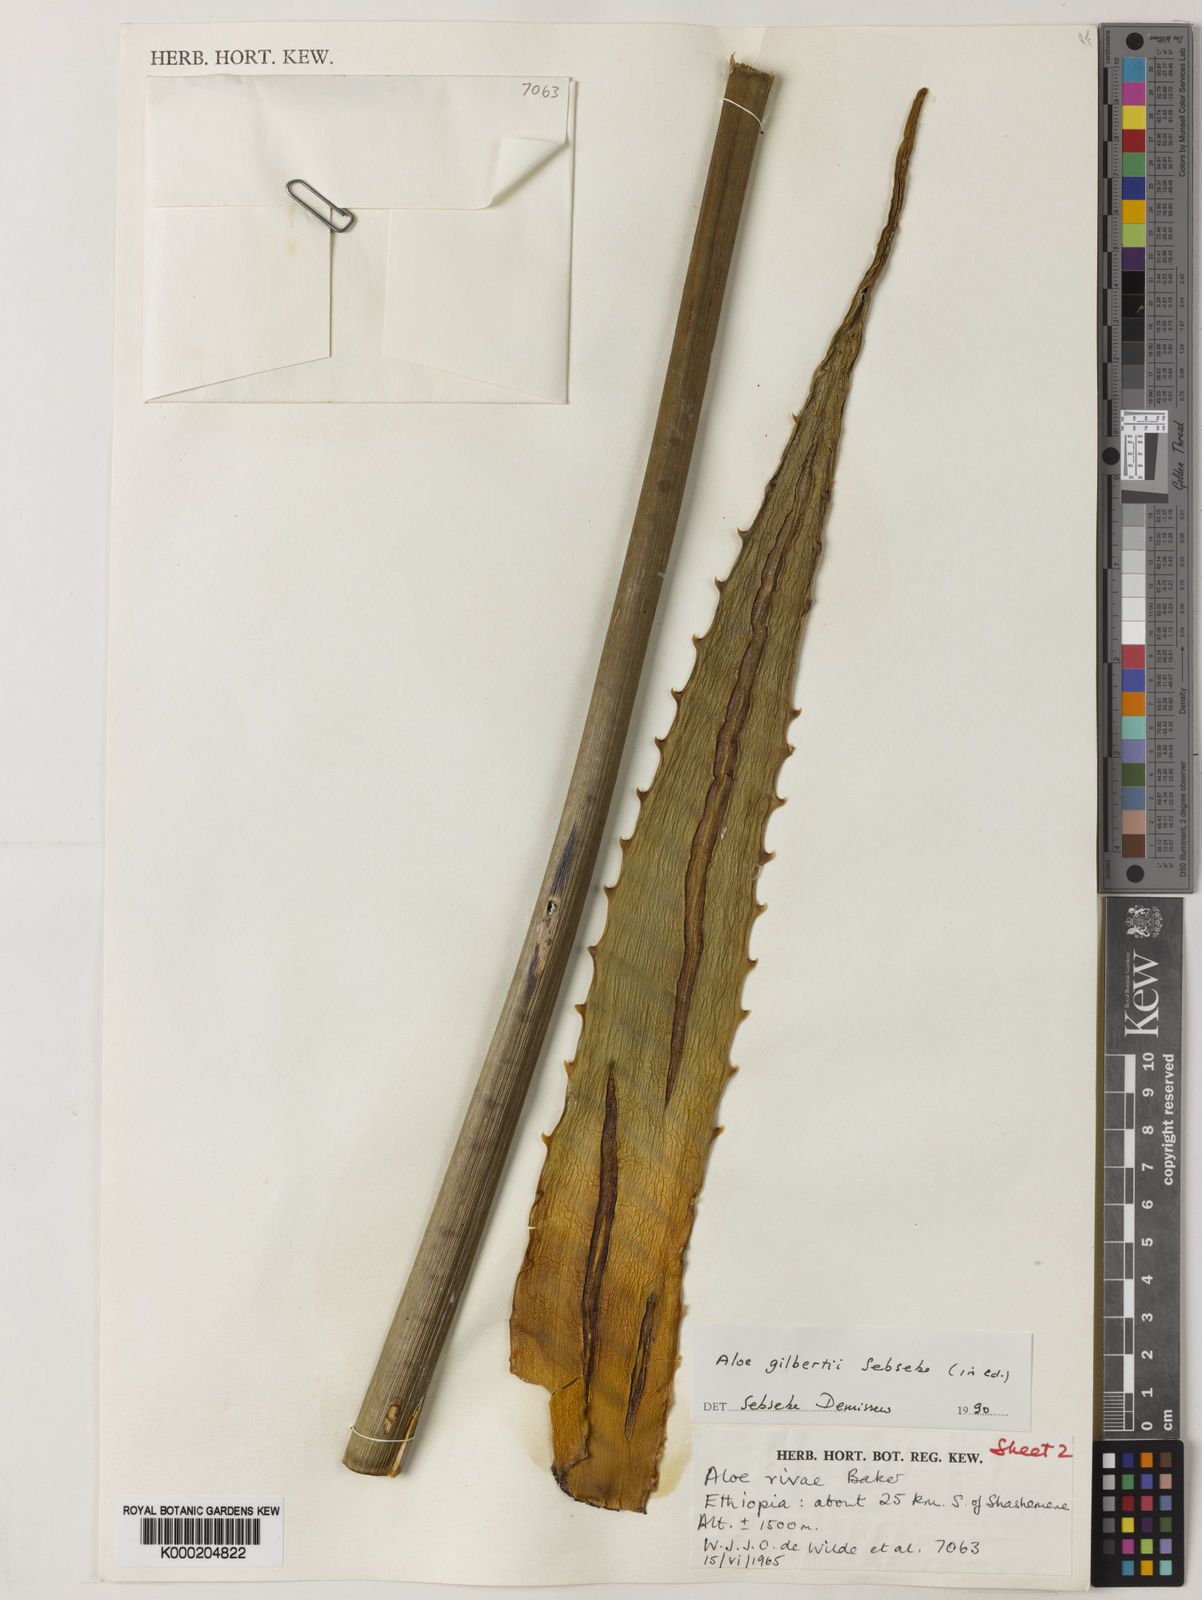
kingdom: Plantae
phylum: Tracheophyta
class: Liliopsida
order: Asparagales
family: Asphodelaceae
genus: Aloe
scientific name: Aloe gilbertii
